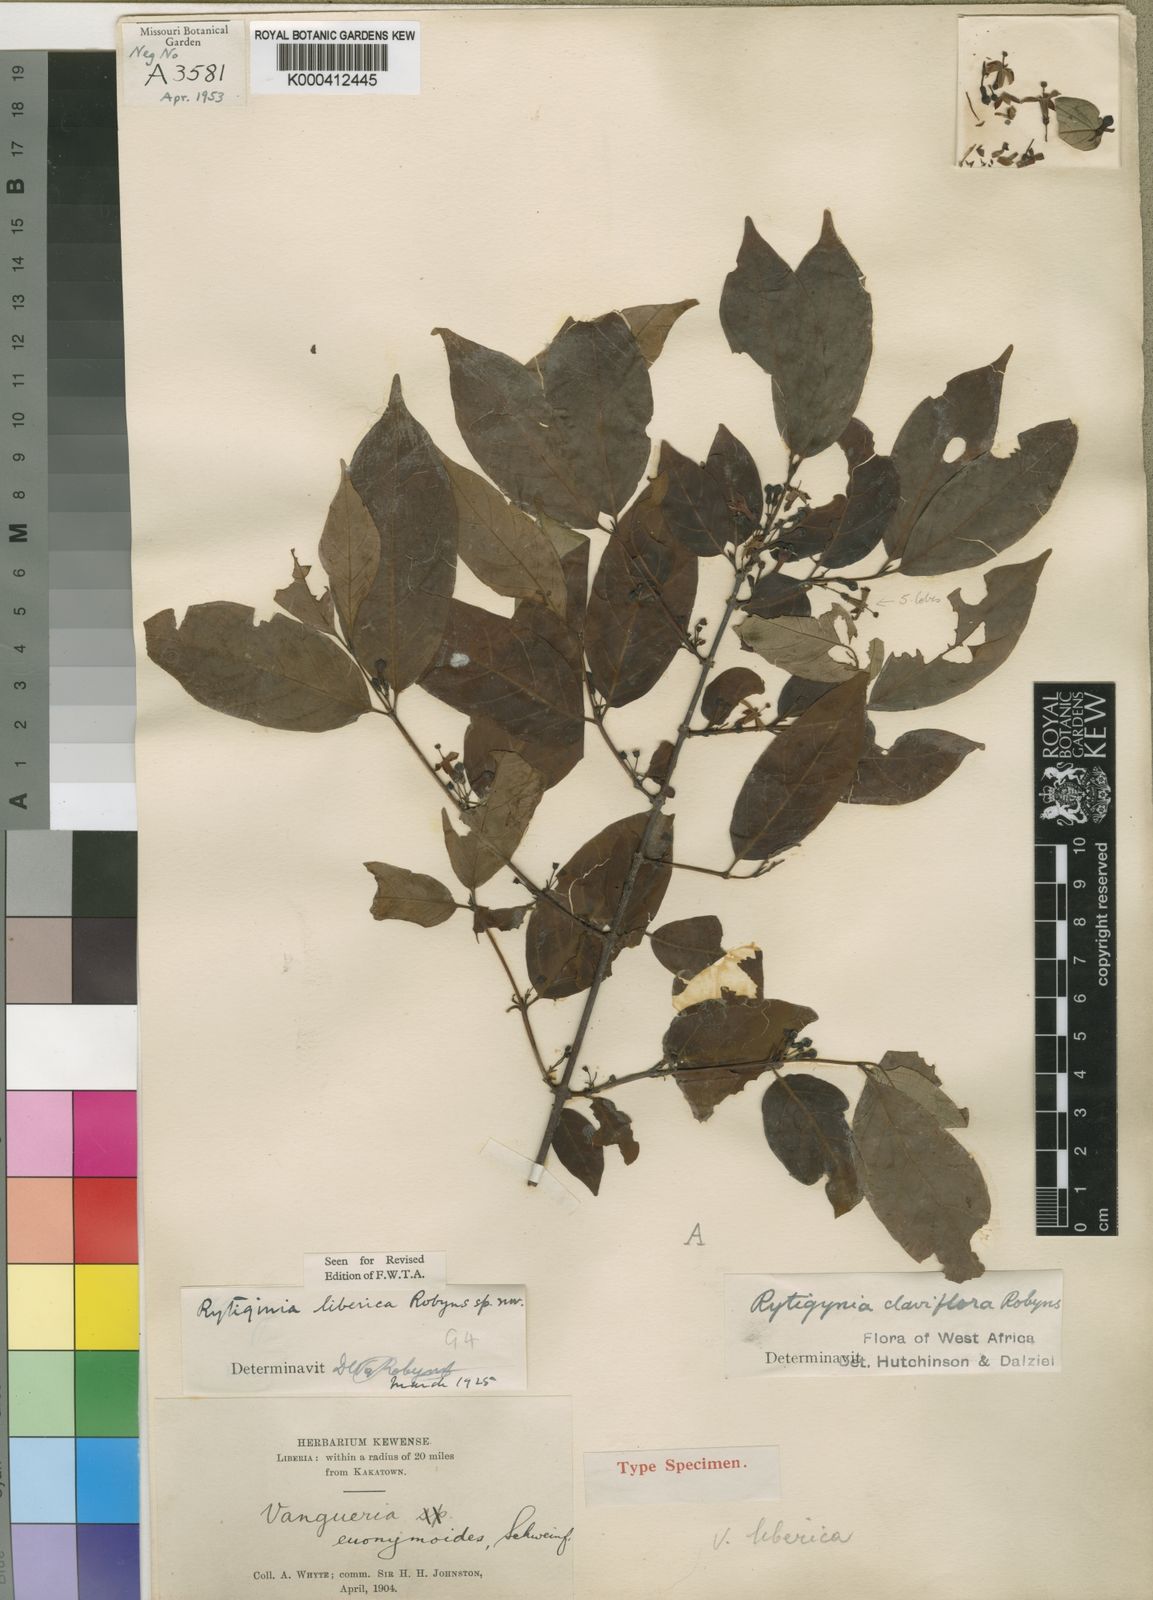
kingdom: Plantae
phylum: Tracheophyta
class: Magnoliopsida
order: Gentianales
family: Rubiaceae
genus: Rytigynia
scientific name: Rytigynia liberica
